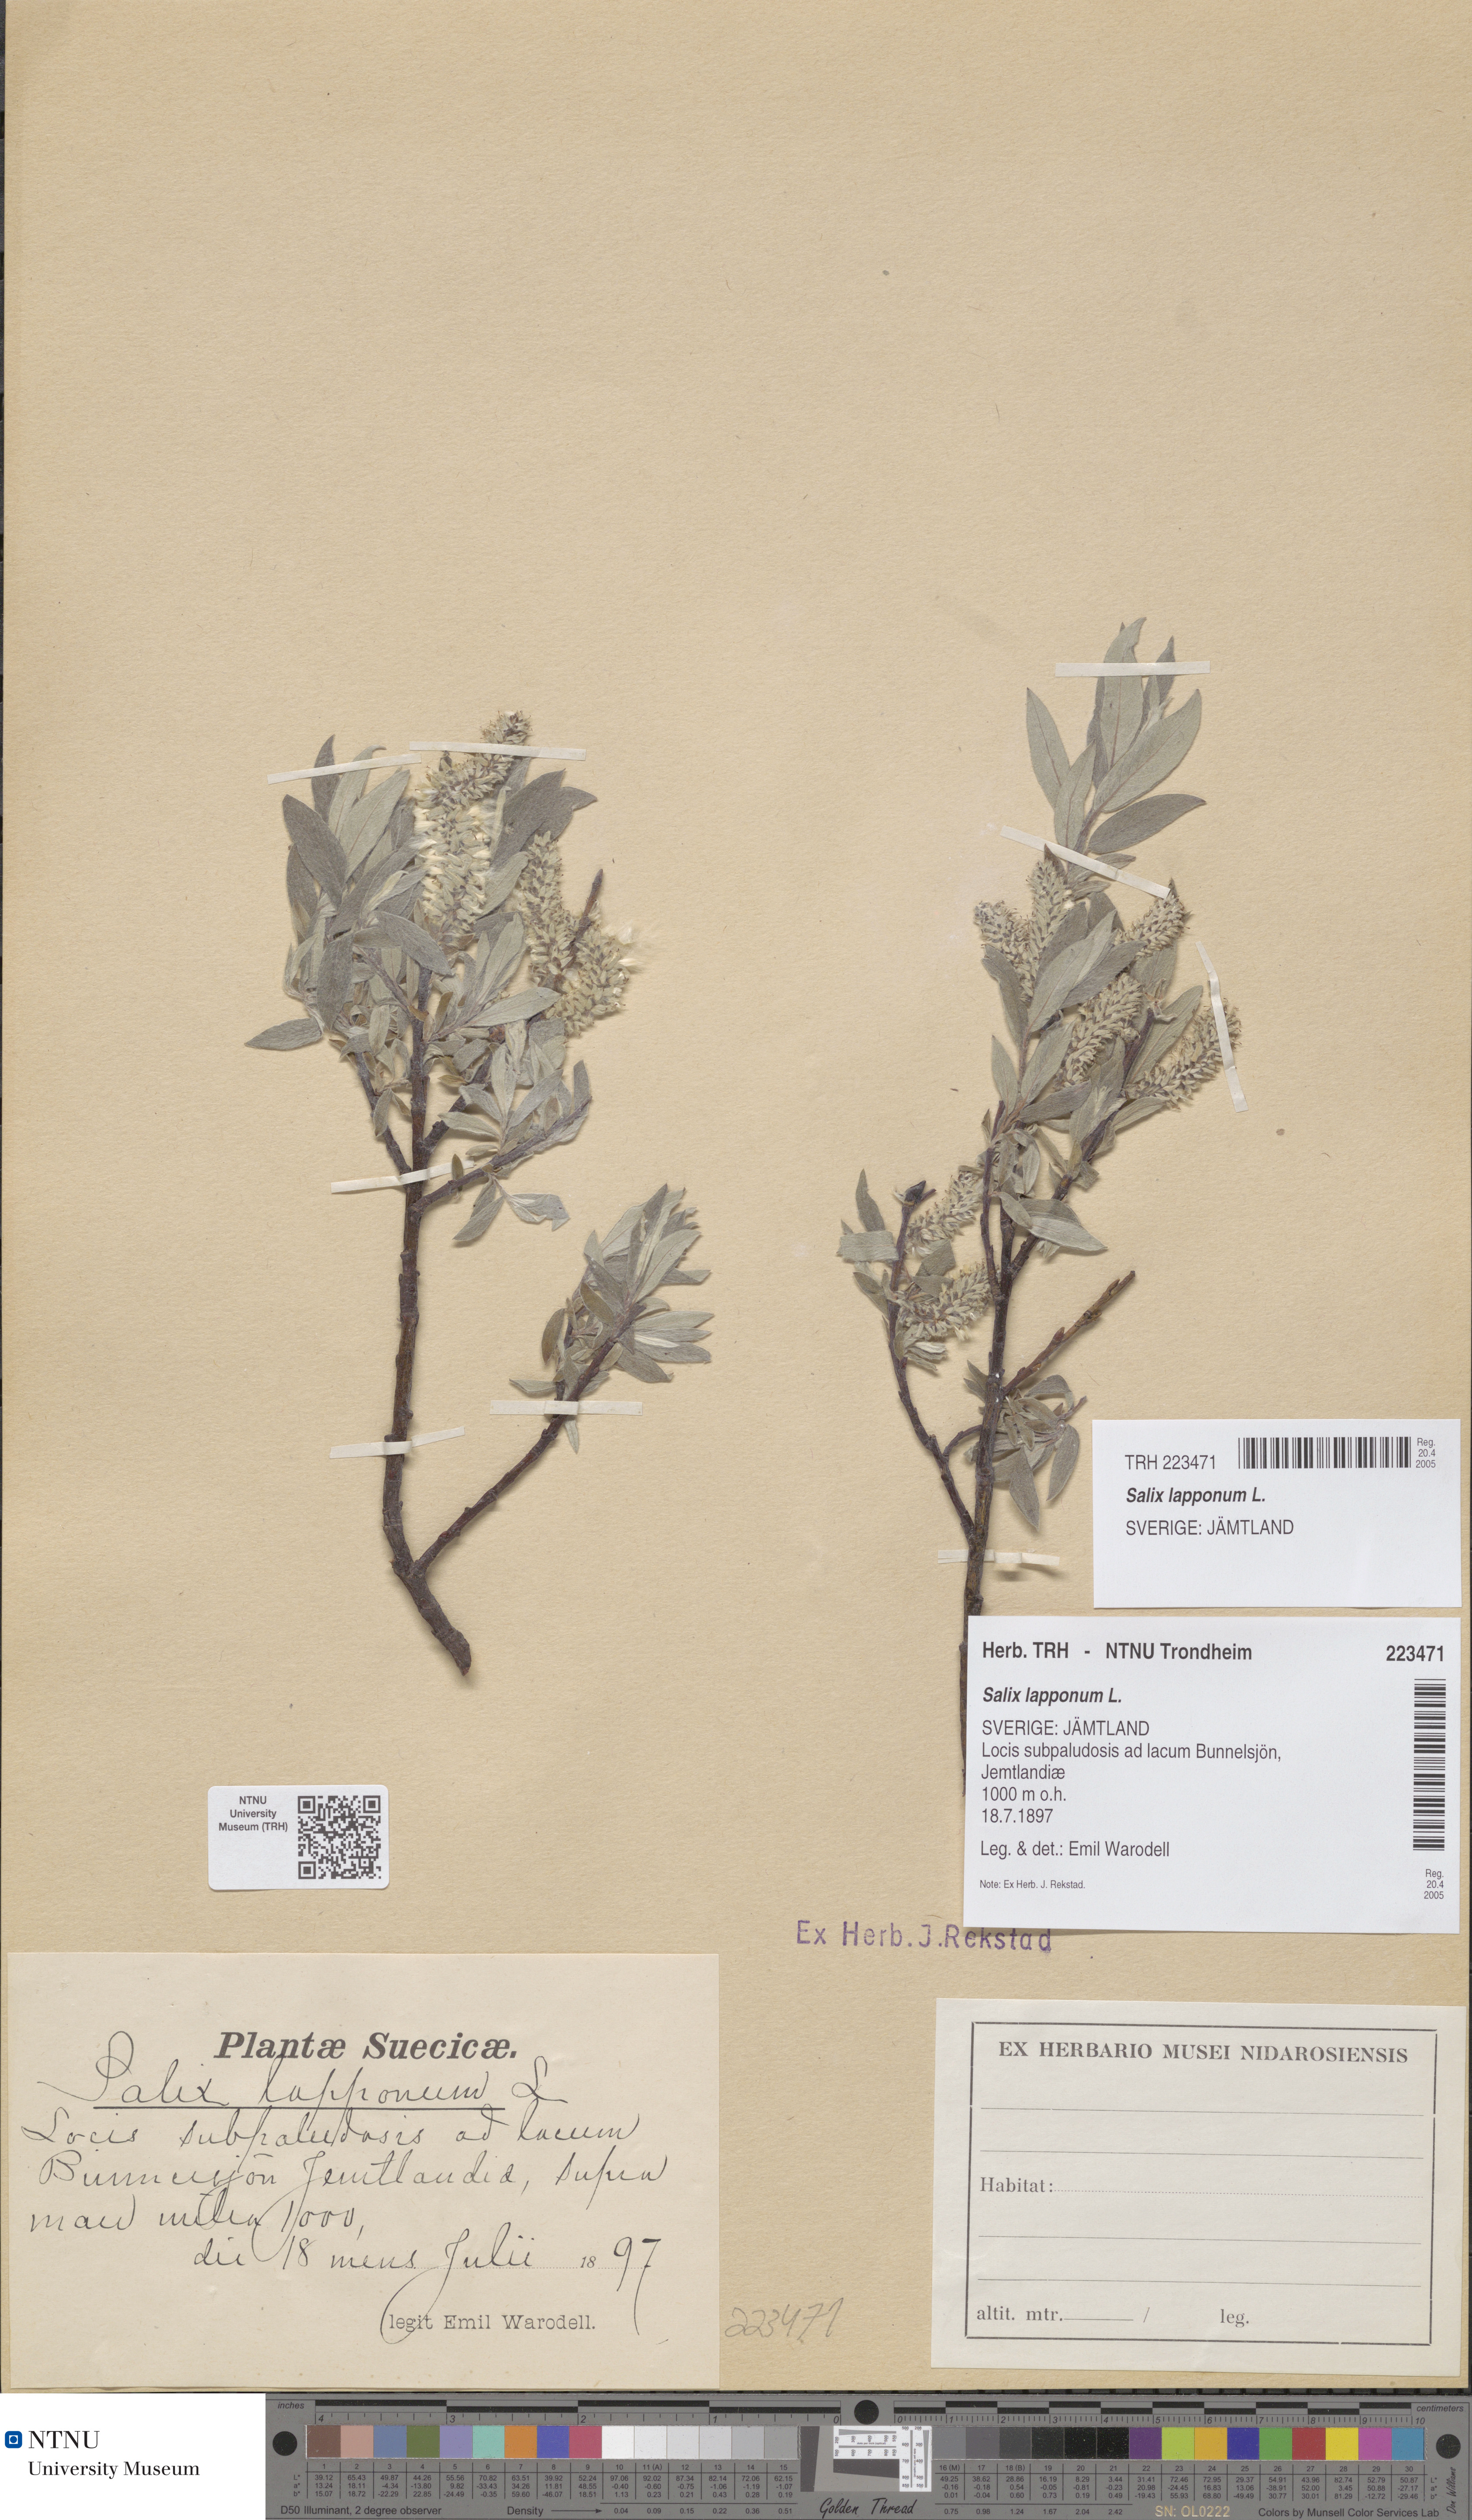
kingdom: Plantae
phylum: Tracheophyta
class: Magnoliopsida
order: Malpighiales
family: Salicaceae
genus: Salix
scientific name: Salix lapponum
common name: Downy willow
